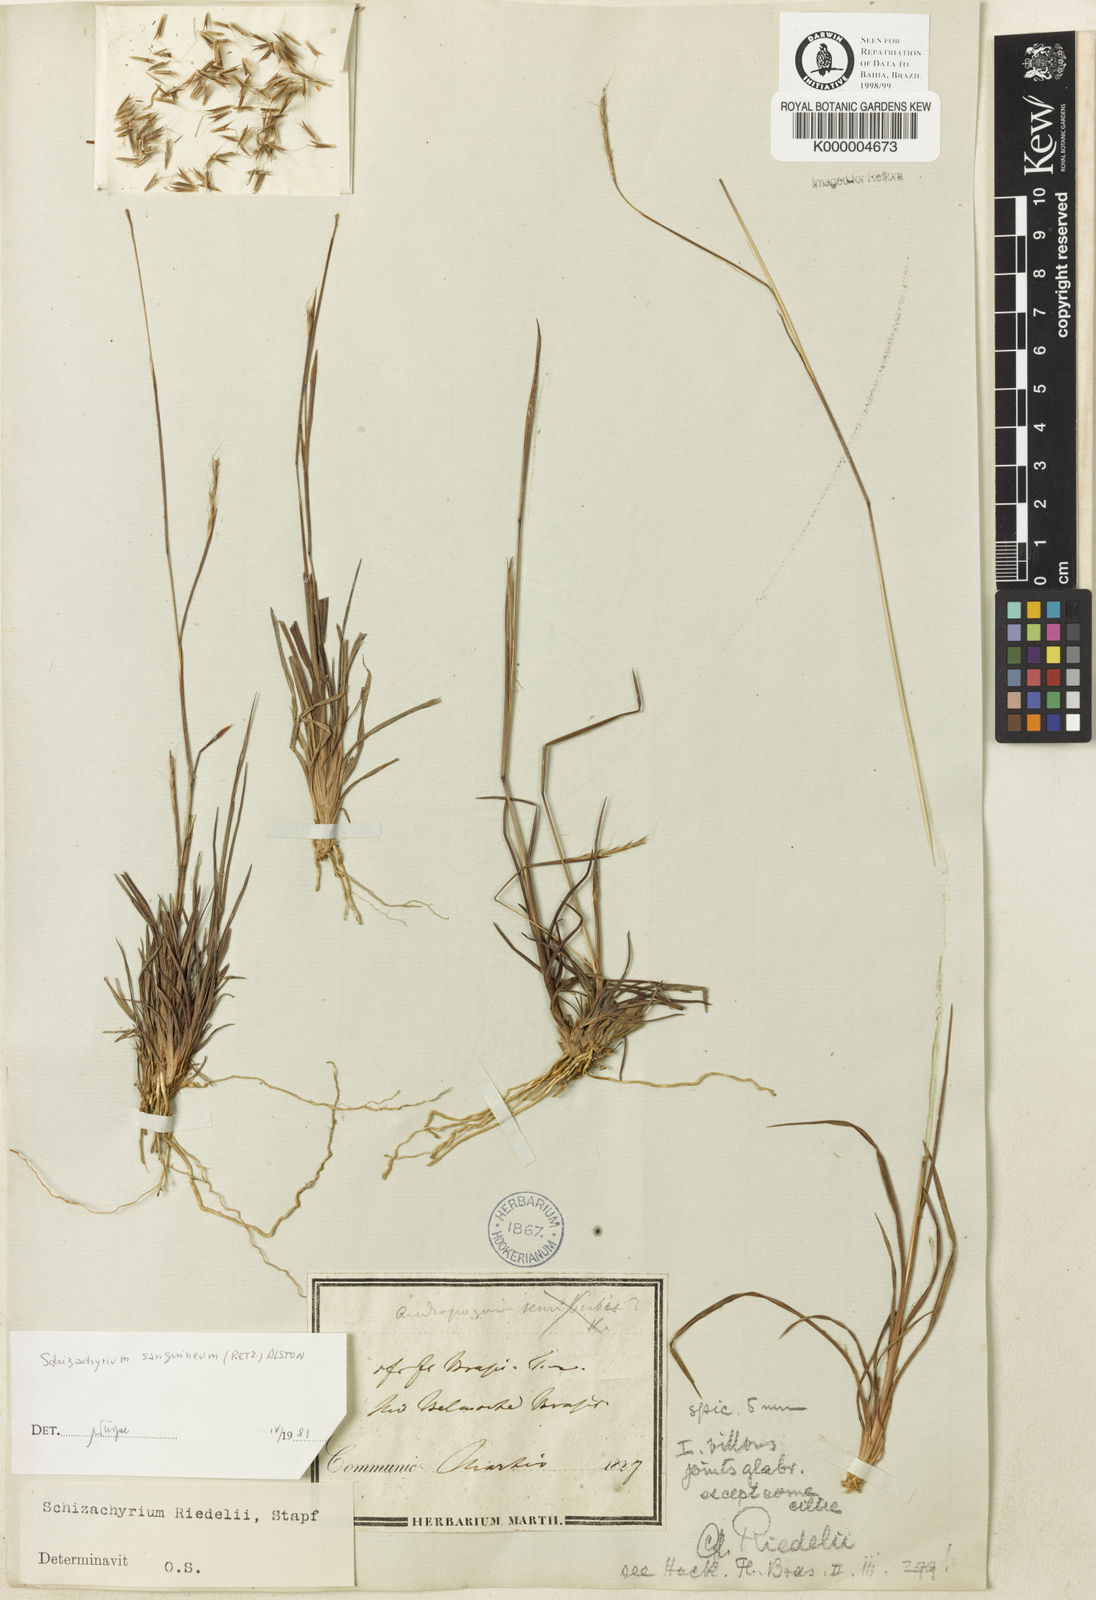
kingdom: Plantae
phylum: Tracheophyta
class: Liliopsida
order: Poales
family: Poaceae
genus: Schizachyrium
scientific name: Schizachyrium sanguineum
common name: Crimson bluestem
